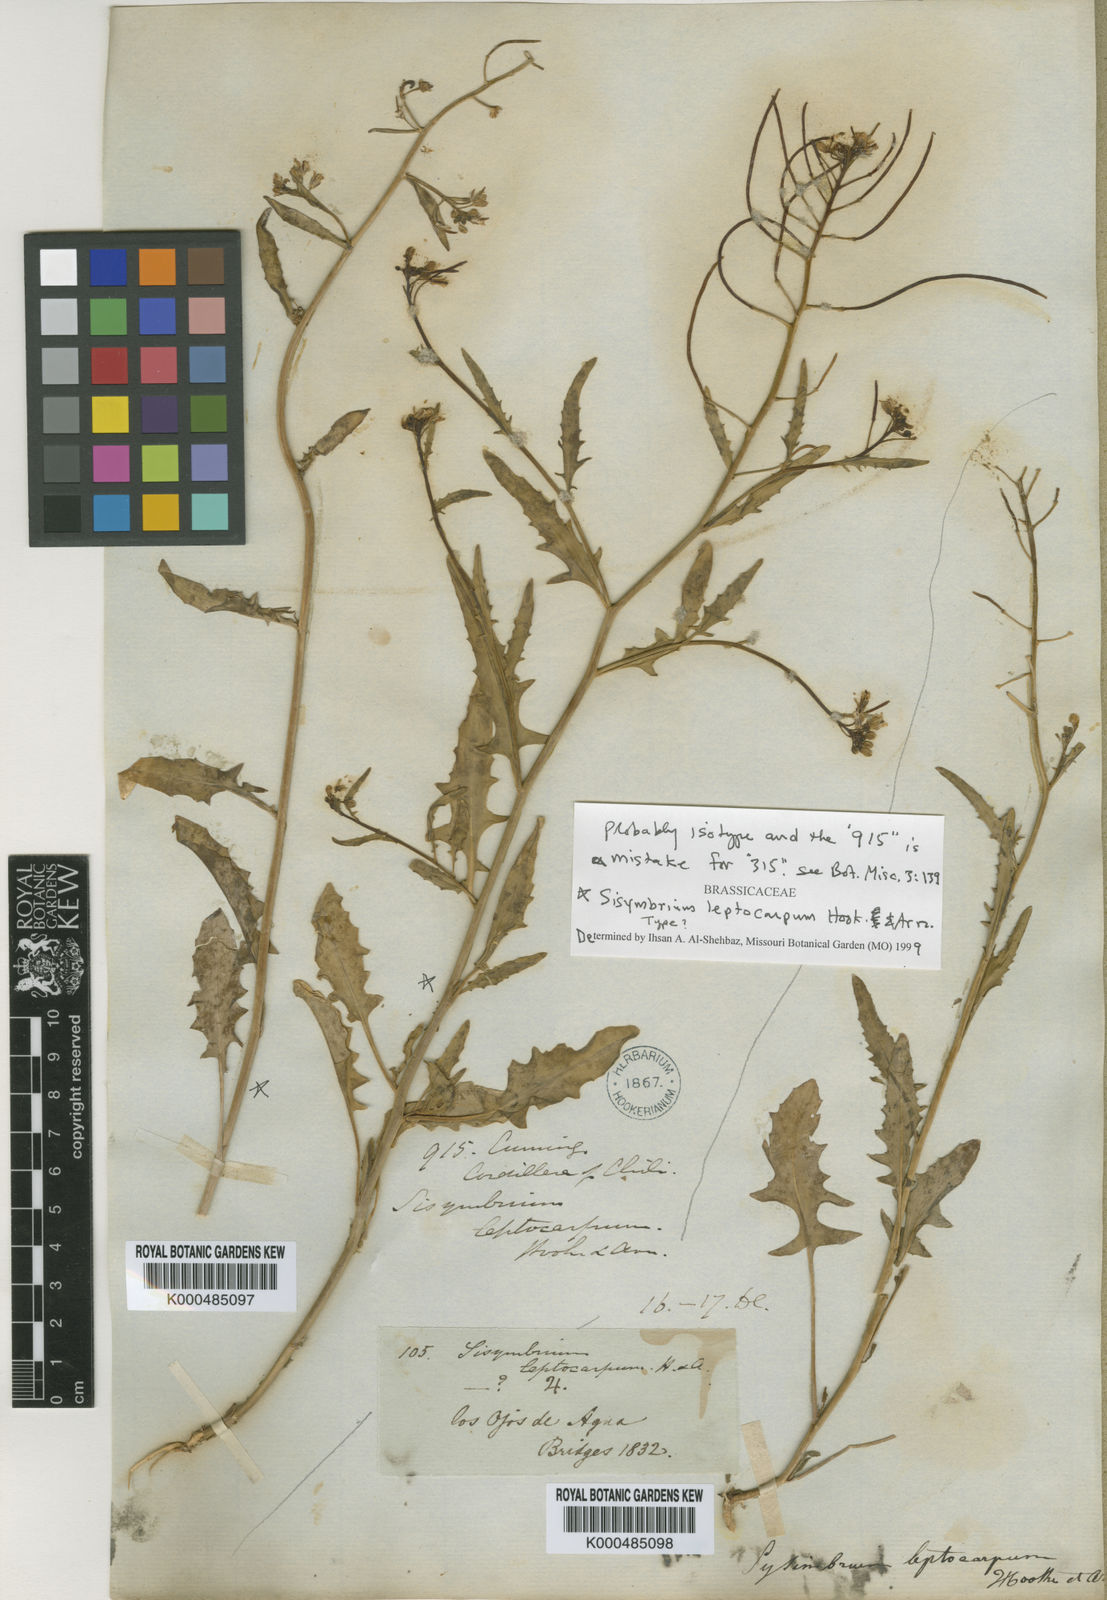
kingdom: Plantae
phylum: Tracheophyta
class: Magnoliopsida
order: Brassicales
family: Brassicaceae
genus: Mostacillastrum
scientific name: Mostacillastrum leptocarpum
